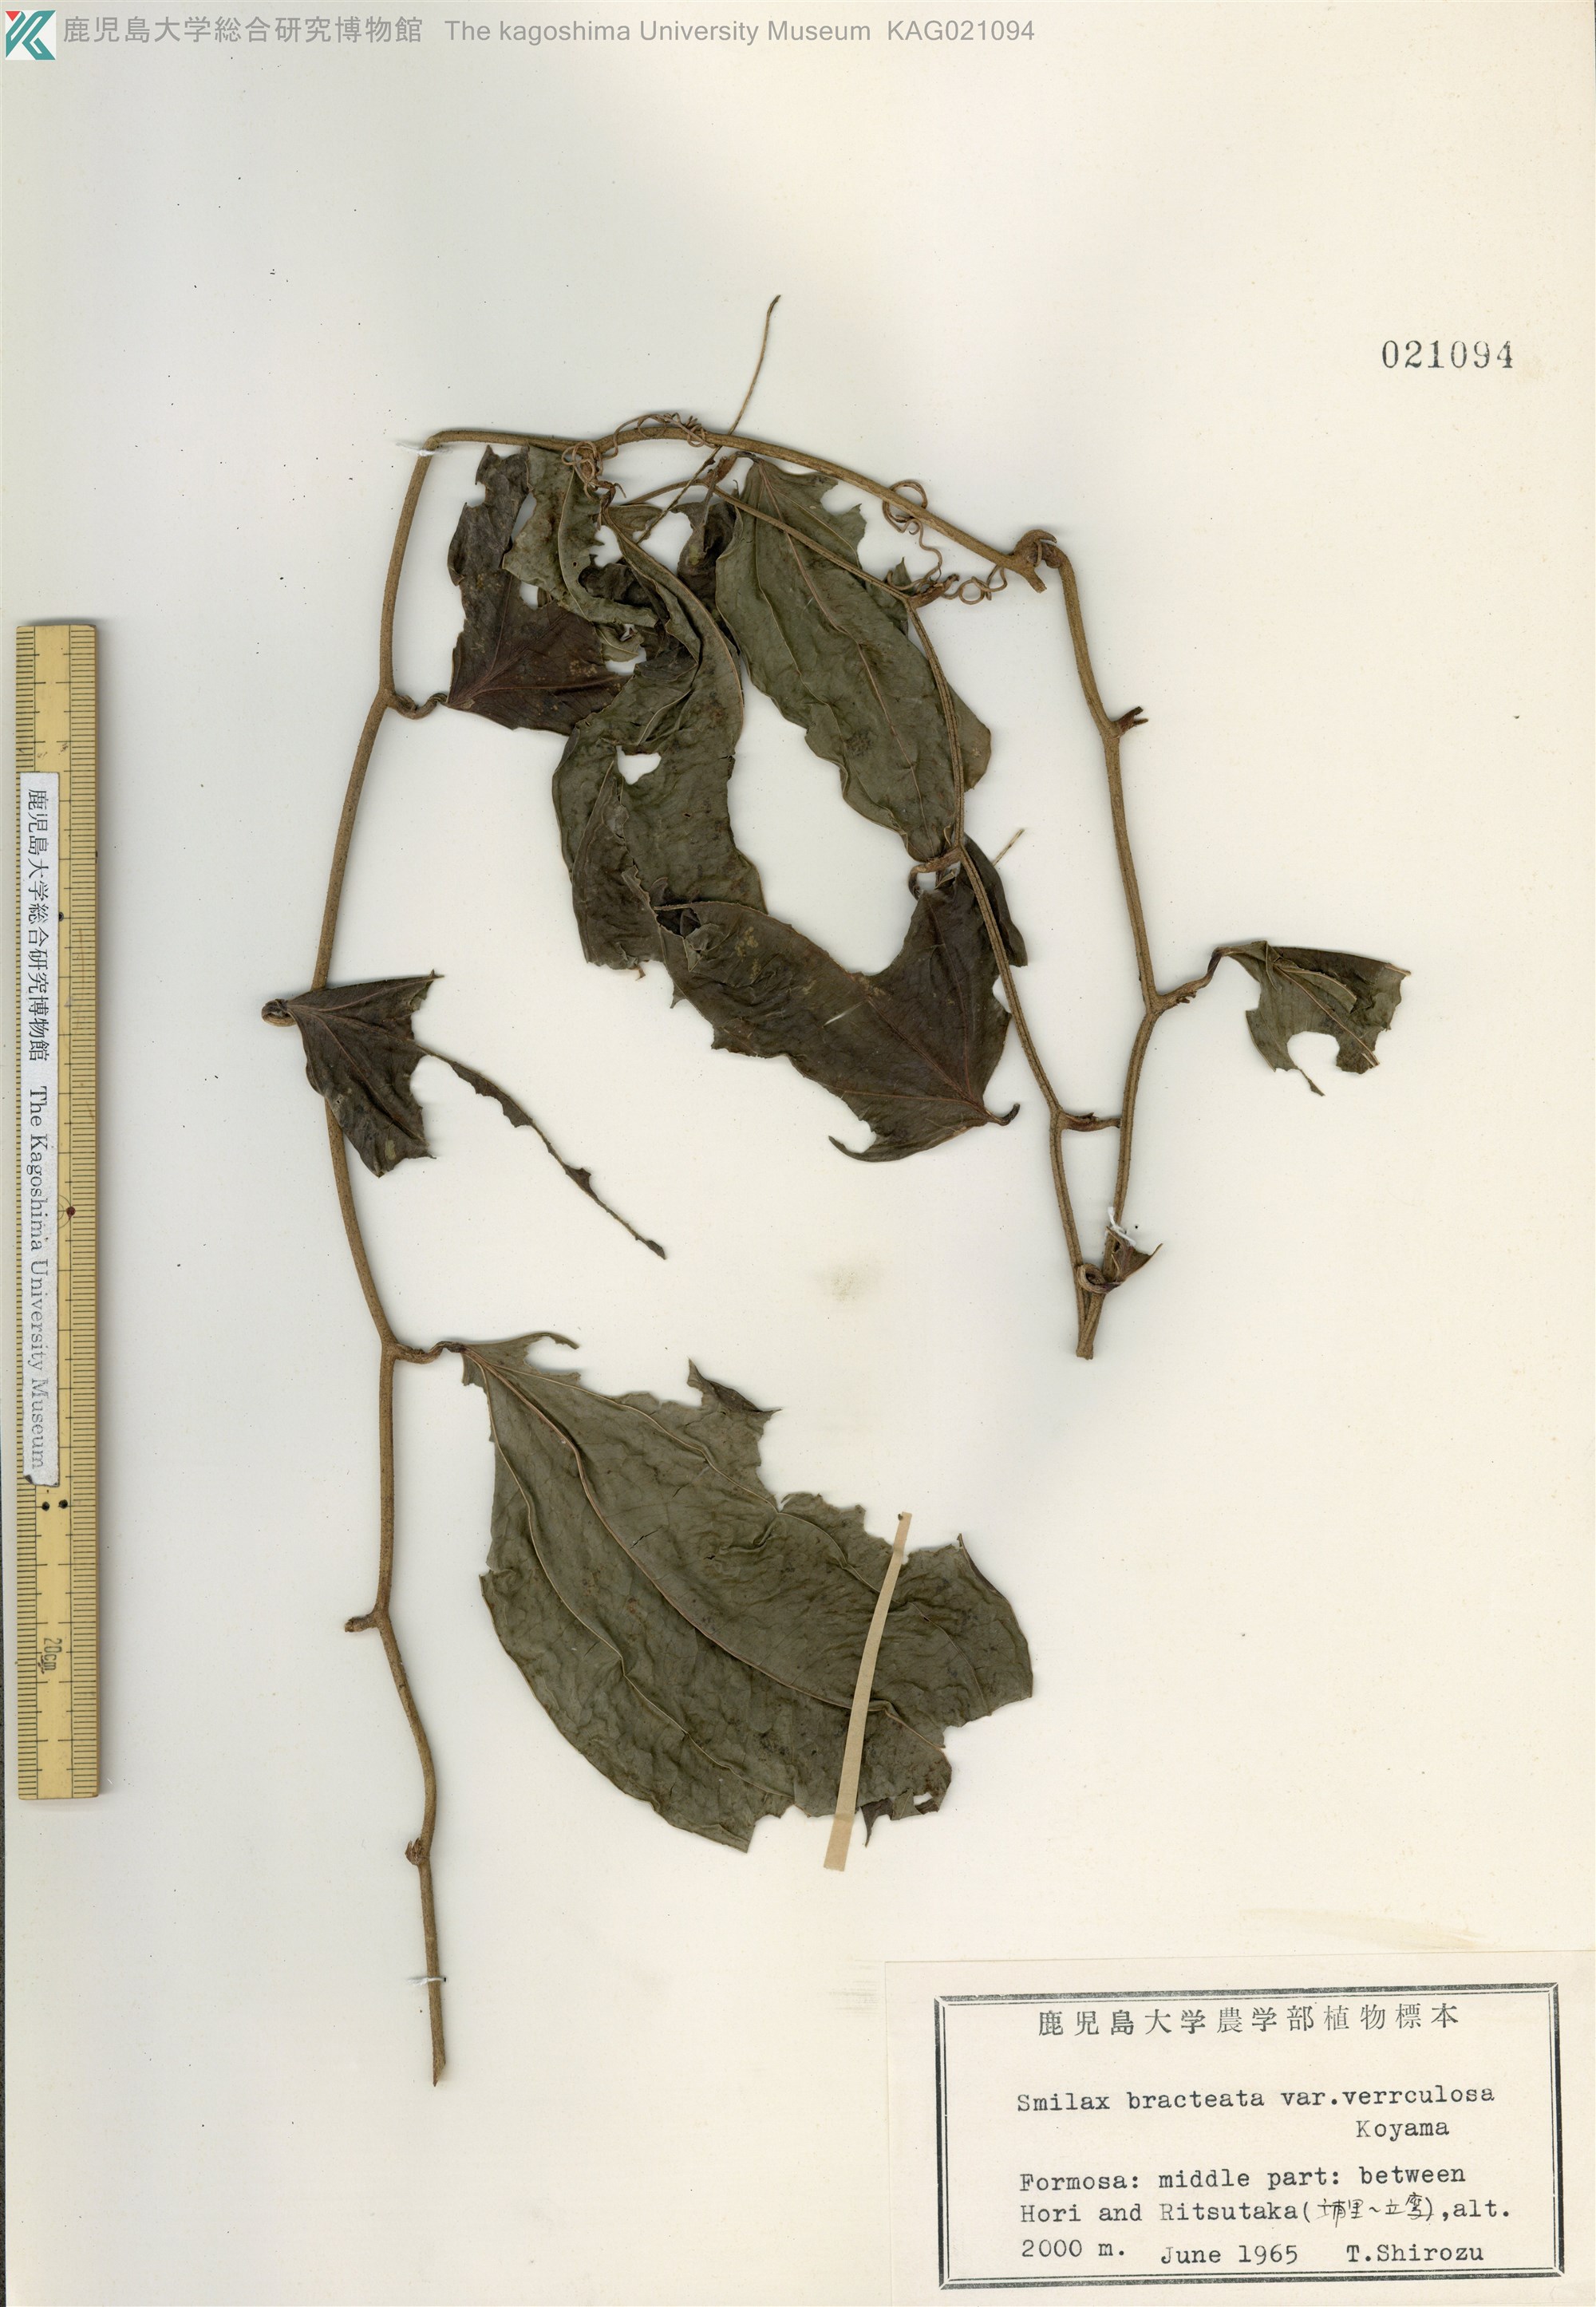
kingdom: Plantae
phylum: Tracheophyta
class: Liliopsida
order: Liliales
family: Smilacaceae
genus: Smilax
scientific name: Smilax bracteata
